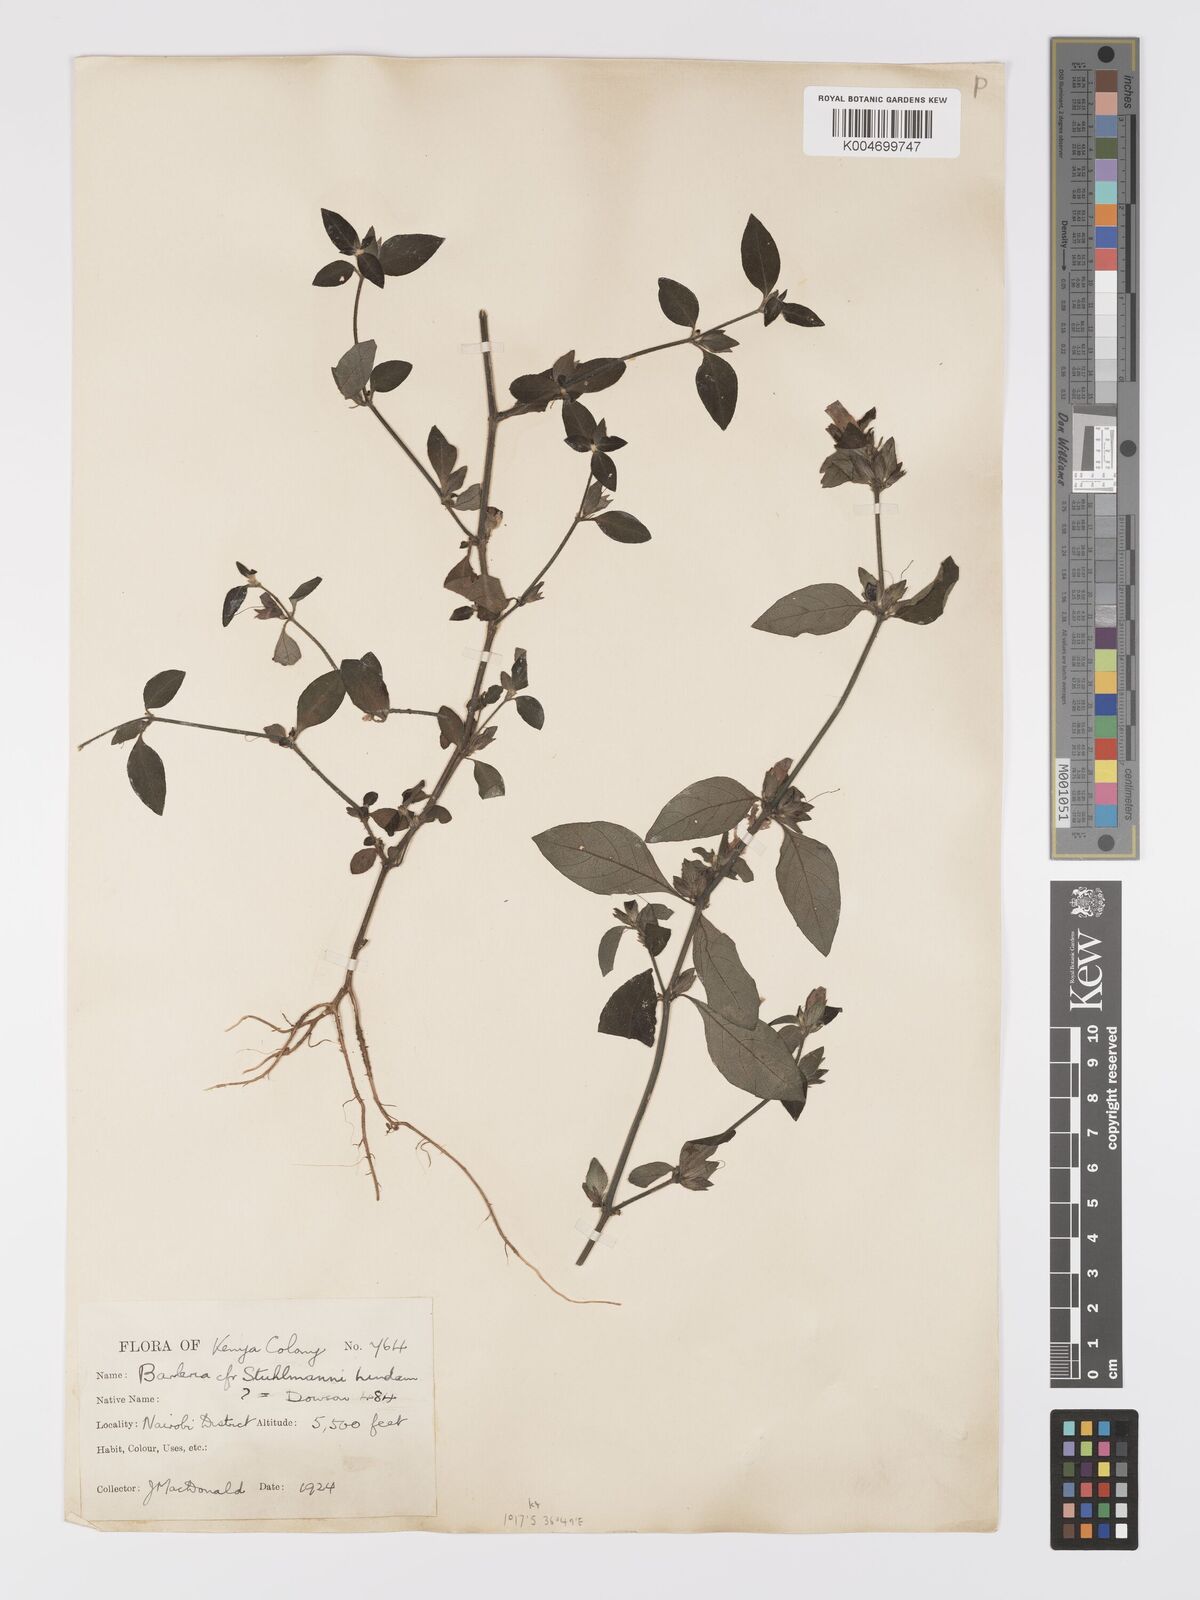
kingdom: Plantae
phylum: Tracheophyta
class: Magnoliopsida
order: Lamiales
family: Acanthaceae
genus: Barleria
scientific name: Barleria ventricosa
